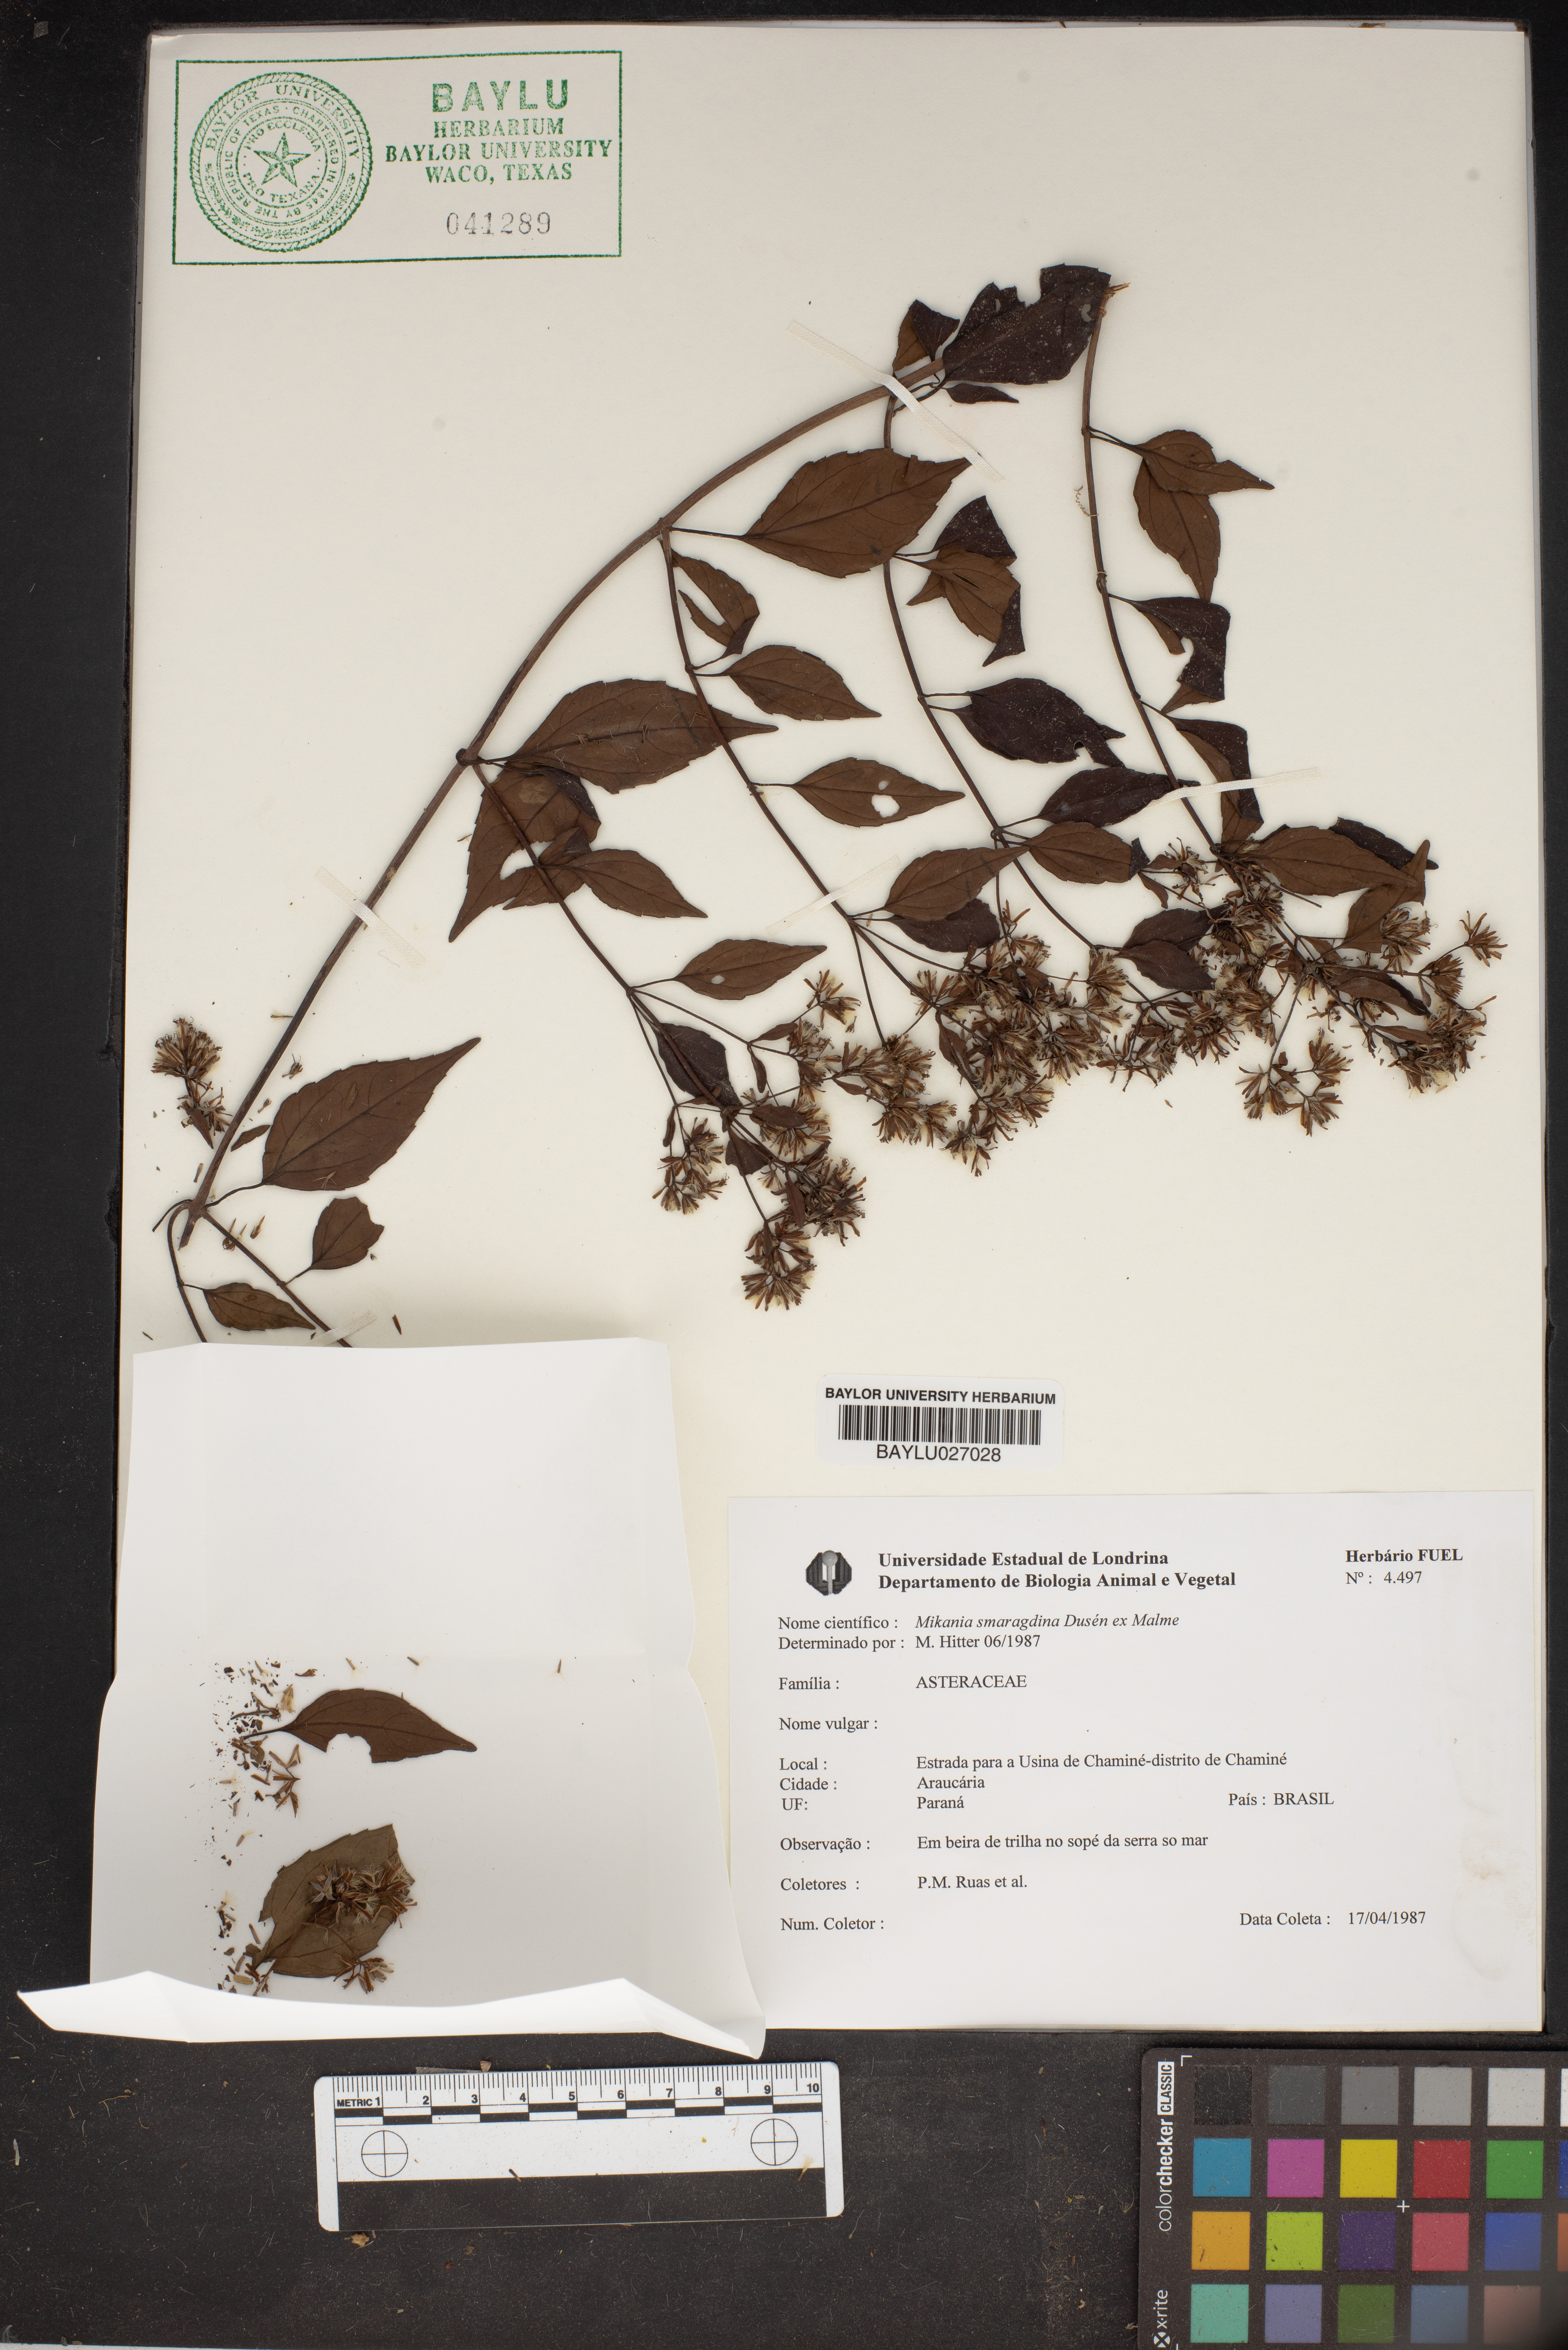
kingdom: Plantae
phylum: Tracheophyta
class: Magnoliopsida
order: Asterales
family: Asteraceae
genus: Mikania
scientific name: Mikania smaragdina
